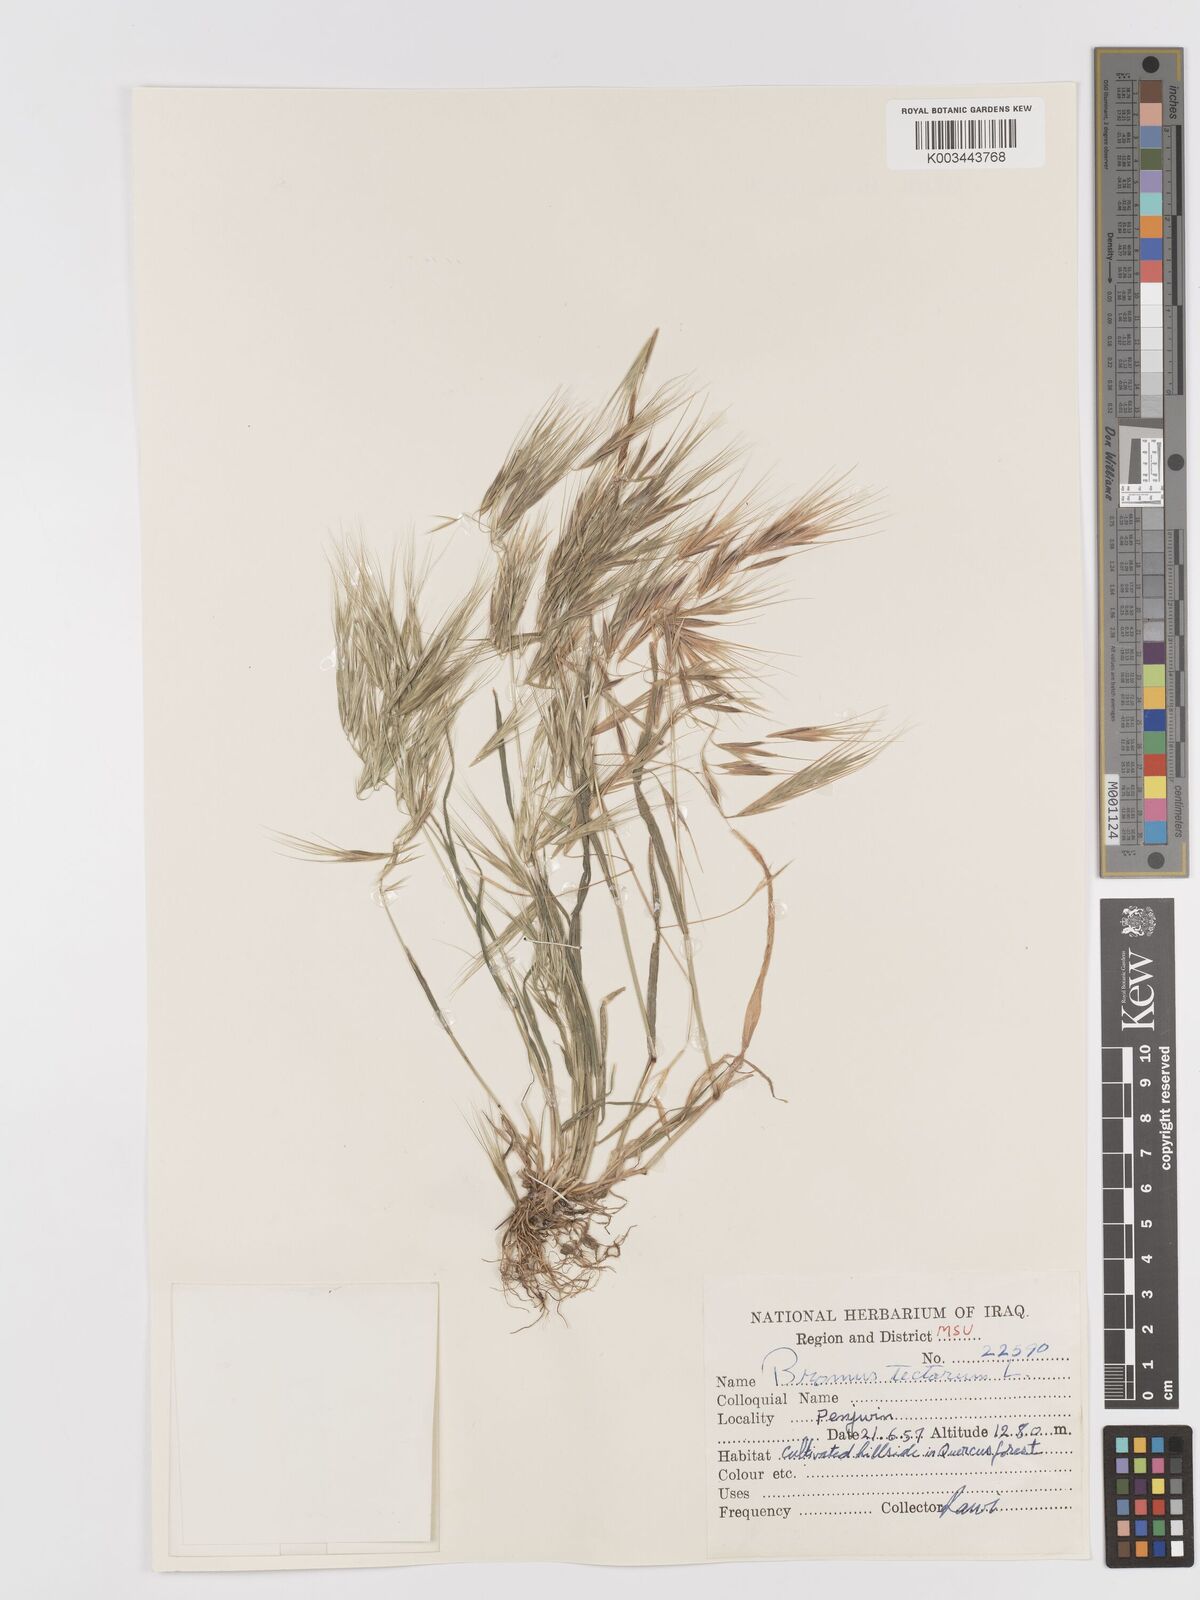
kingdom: Plantae
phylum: Tracheophyta
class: Liliopsida
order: Poales
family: Poaceae
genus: Bromus
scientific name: Bromus tectorum
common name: Cheatgrass
